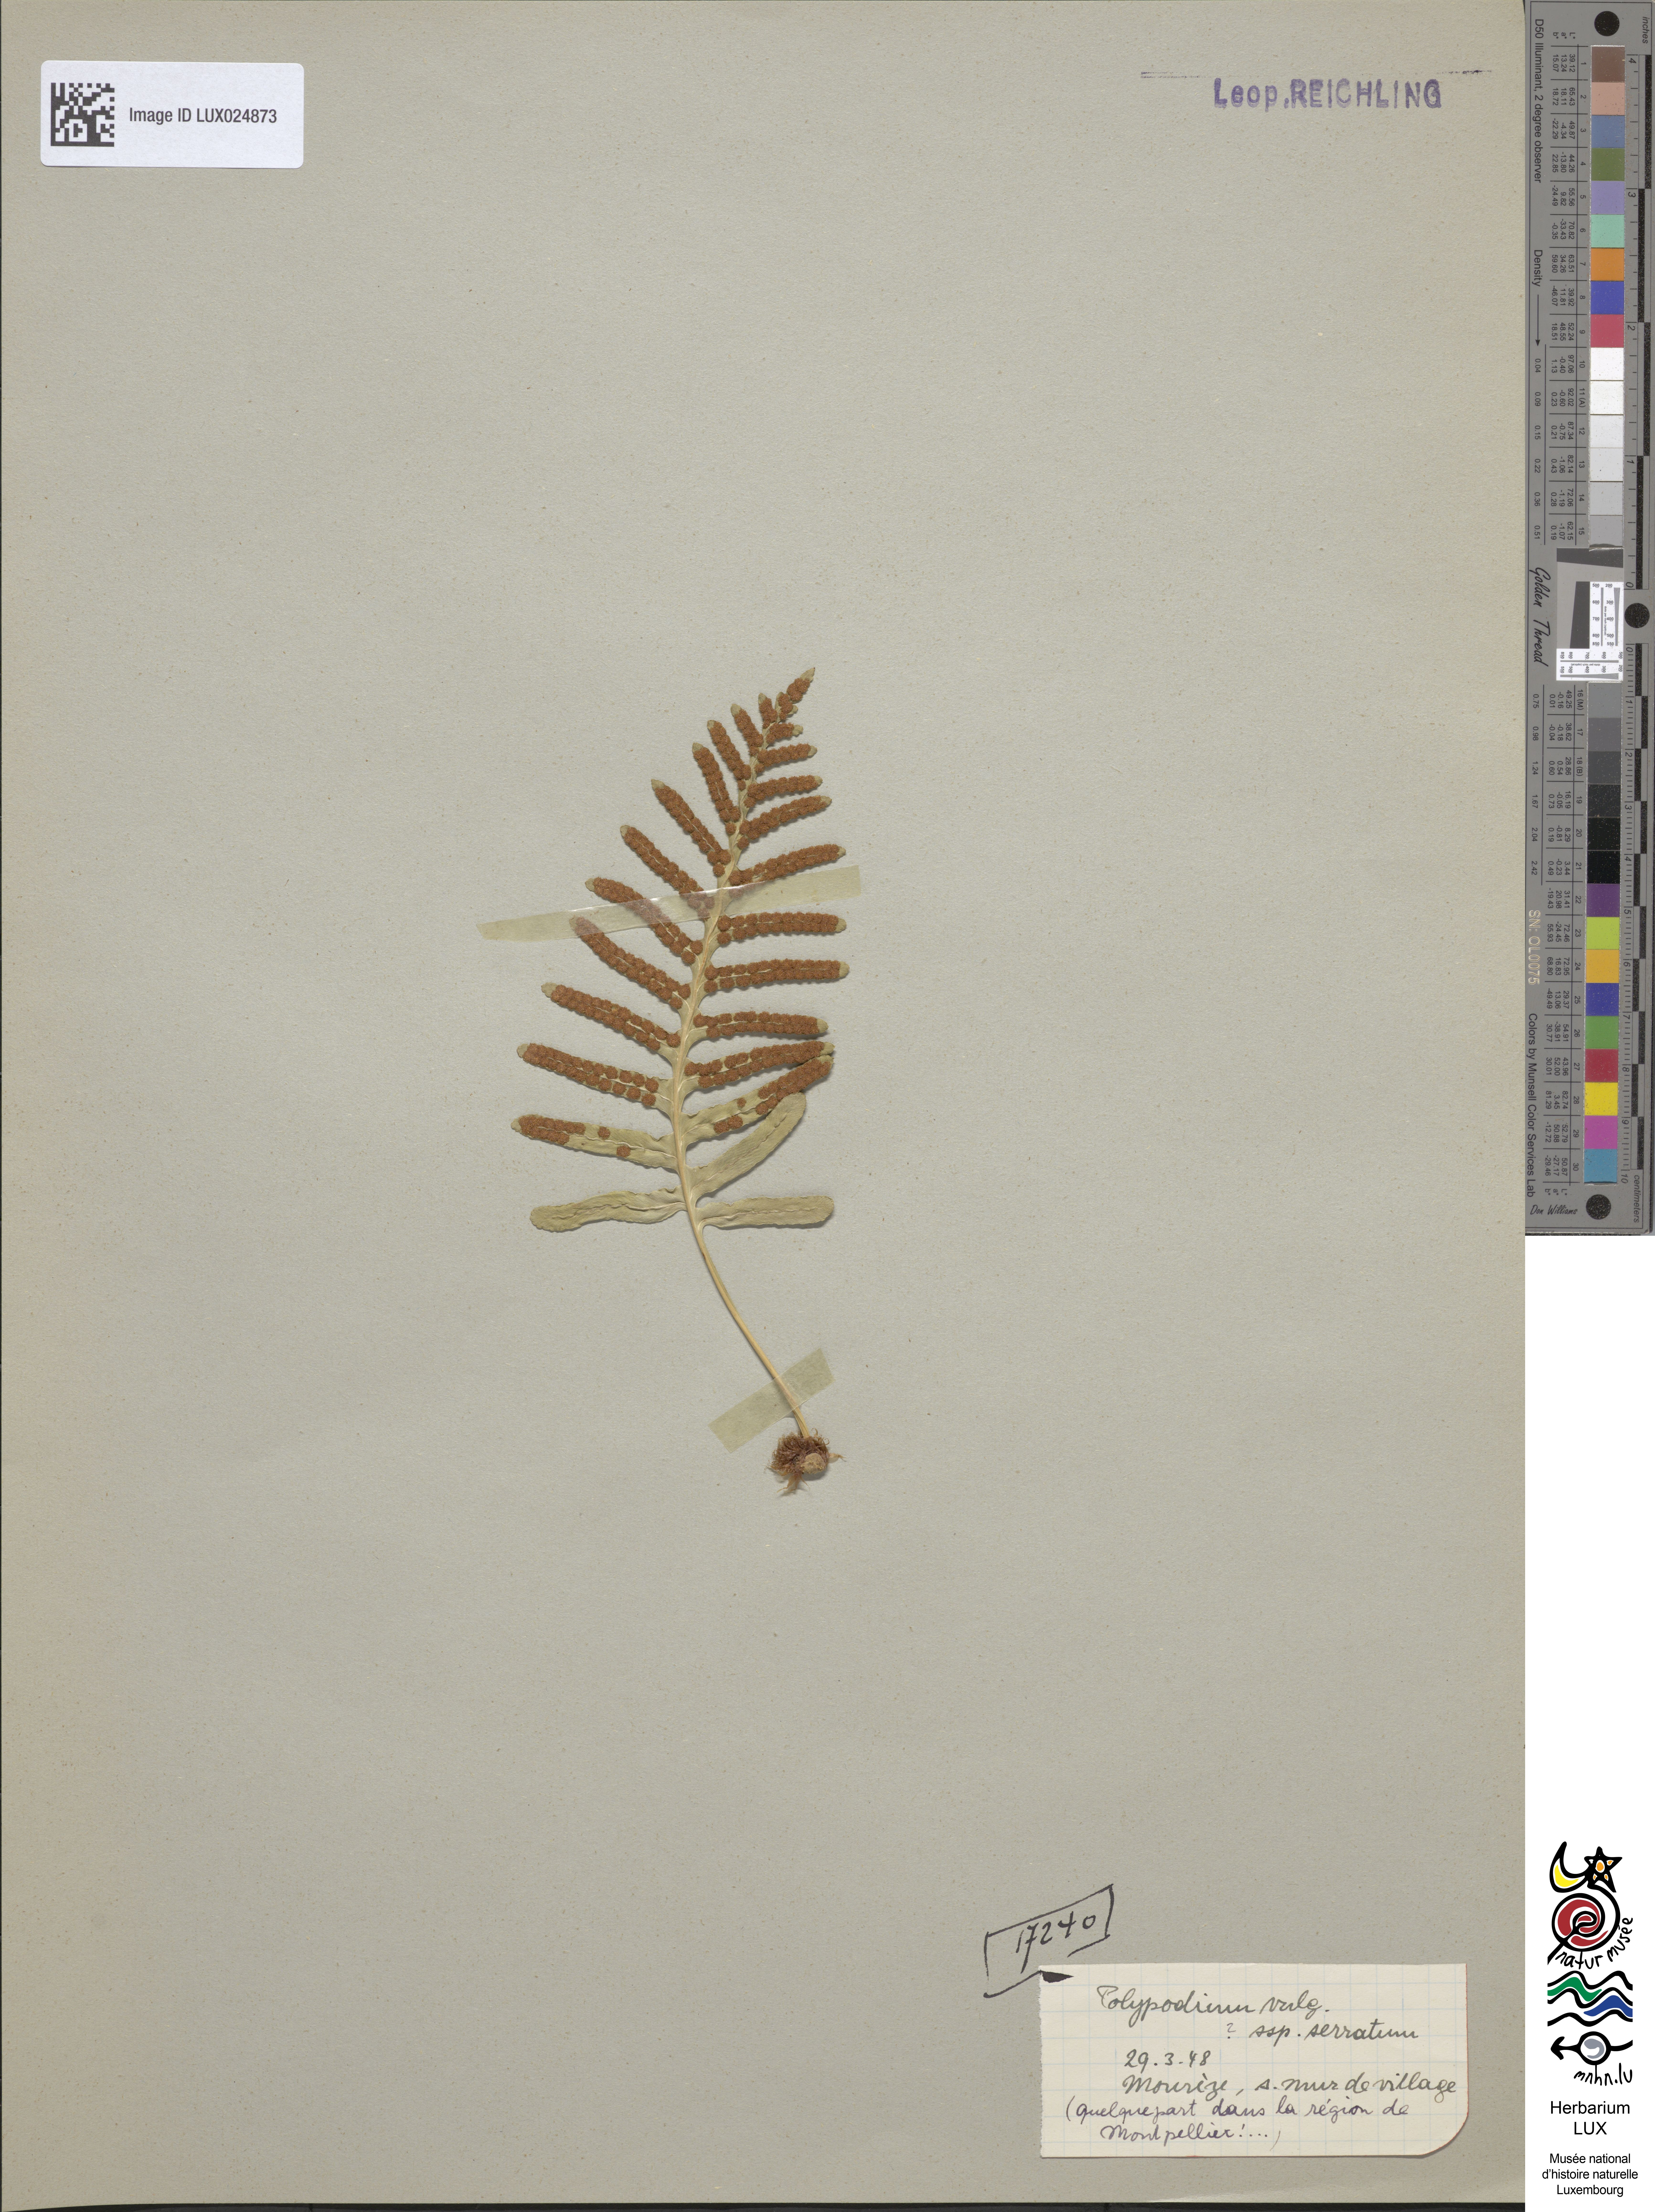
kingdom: Plantae
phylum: Tracheophyta
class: Polypodiopsida
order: Polypodiales
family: Polypodiaceae
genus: Polypodium
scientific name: Polypodium cambricum
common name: Southern polypody
